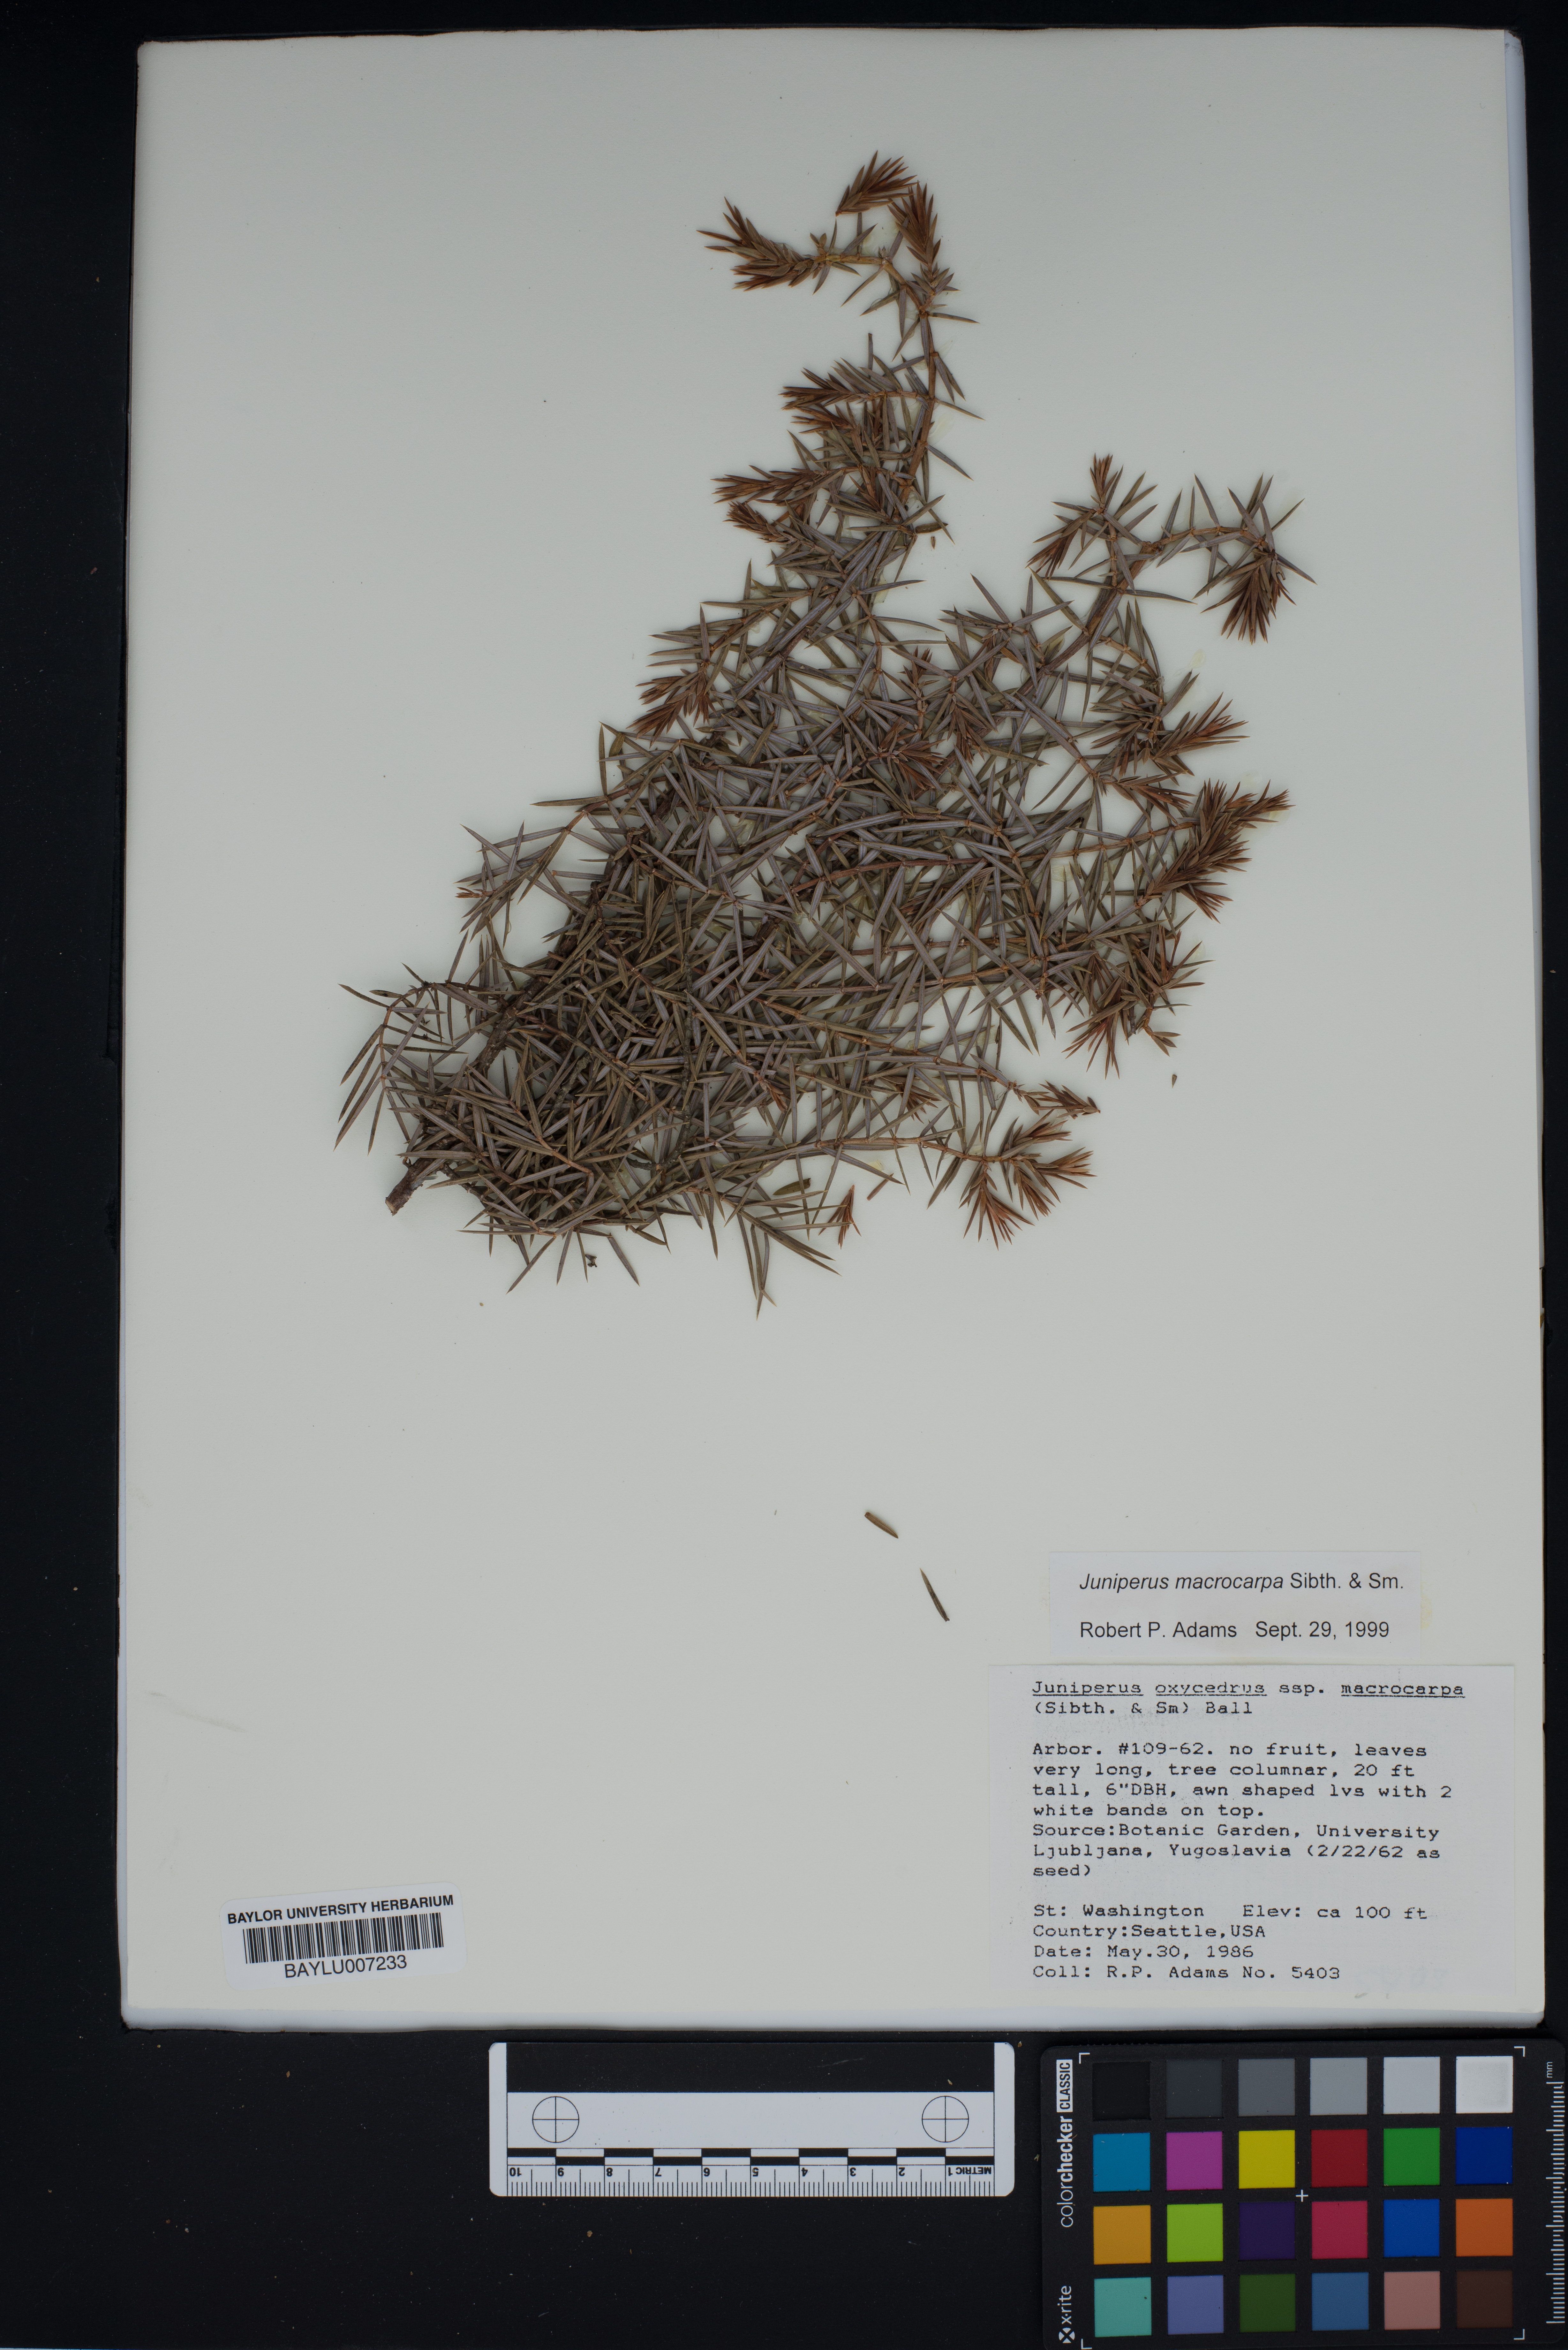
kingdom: Plantae
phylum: Tracheophyta
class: Pinopsida
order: Pinales
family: Cupressaceae
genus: Juniperus
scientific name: Juniperus oxycedrus
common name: Prickly juniper
